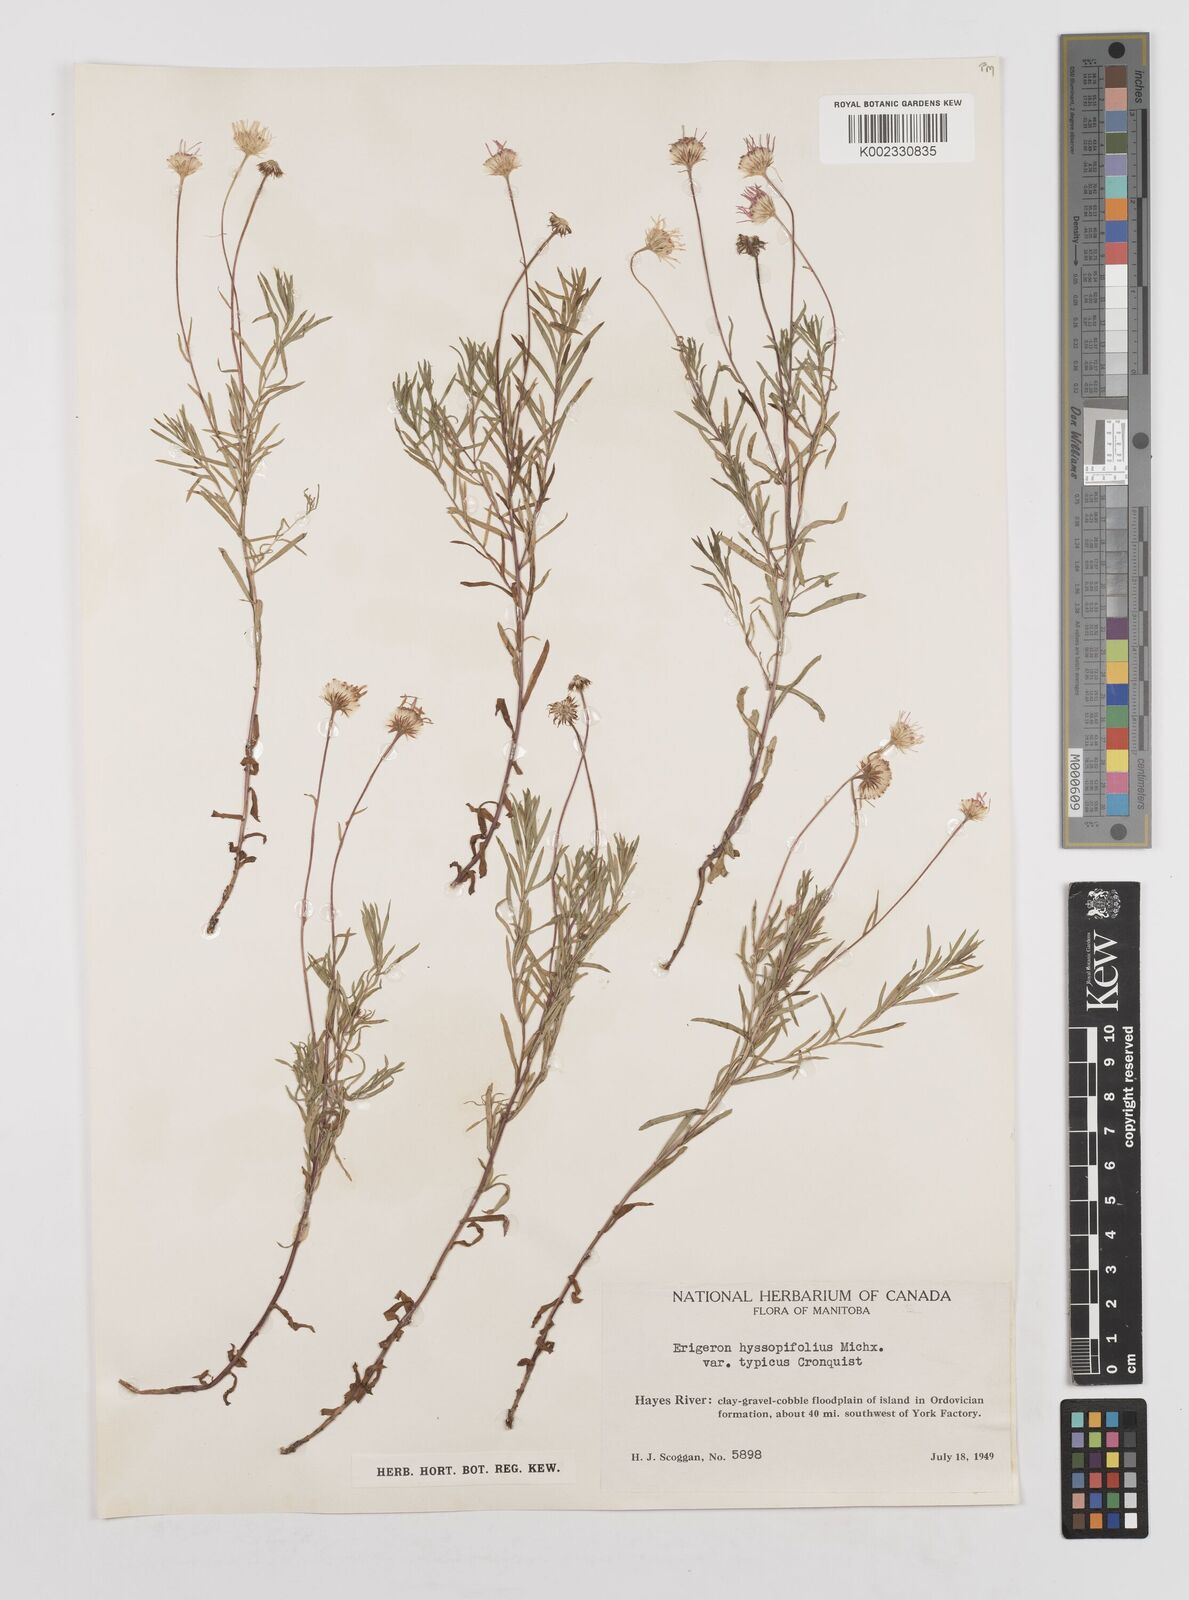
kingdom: Plantae
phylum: Tracheophyta
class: Magnoliopsida
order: Asterales
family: Asteraceae
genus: Erigeron
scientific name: Erigeron hyssopifolius
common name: Daisy fleabane
